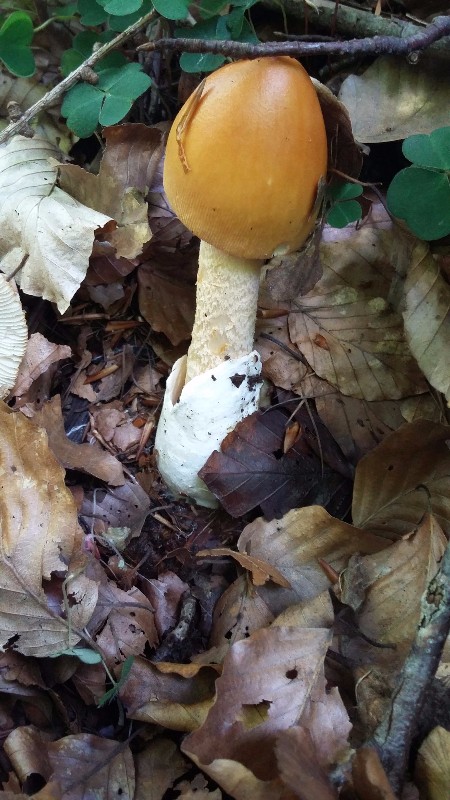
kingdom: Fungi
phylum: Basidiomycota
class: Agaricomycetes
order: Agaricales
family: Amanitaceae
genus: Amanita
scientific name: Amanita crocea
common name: gylden kam-fluesvamp
